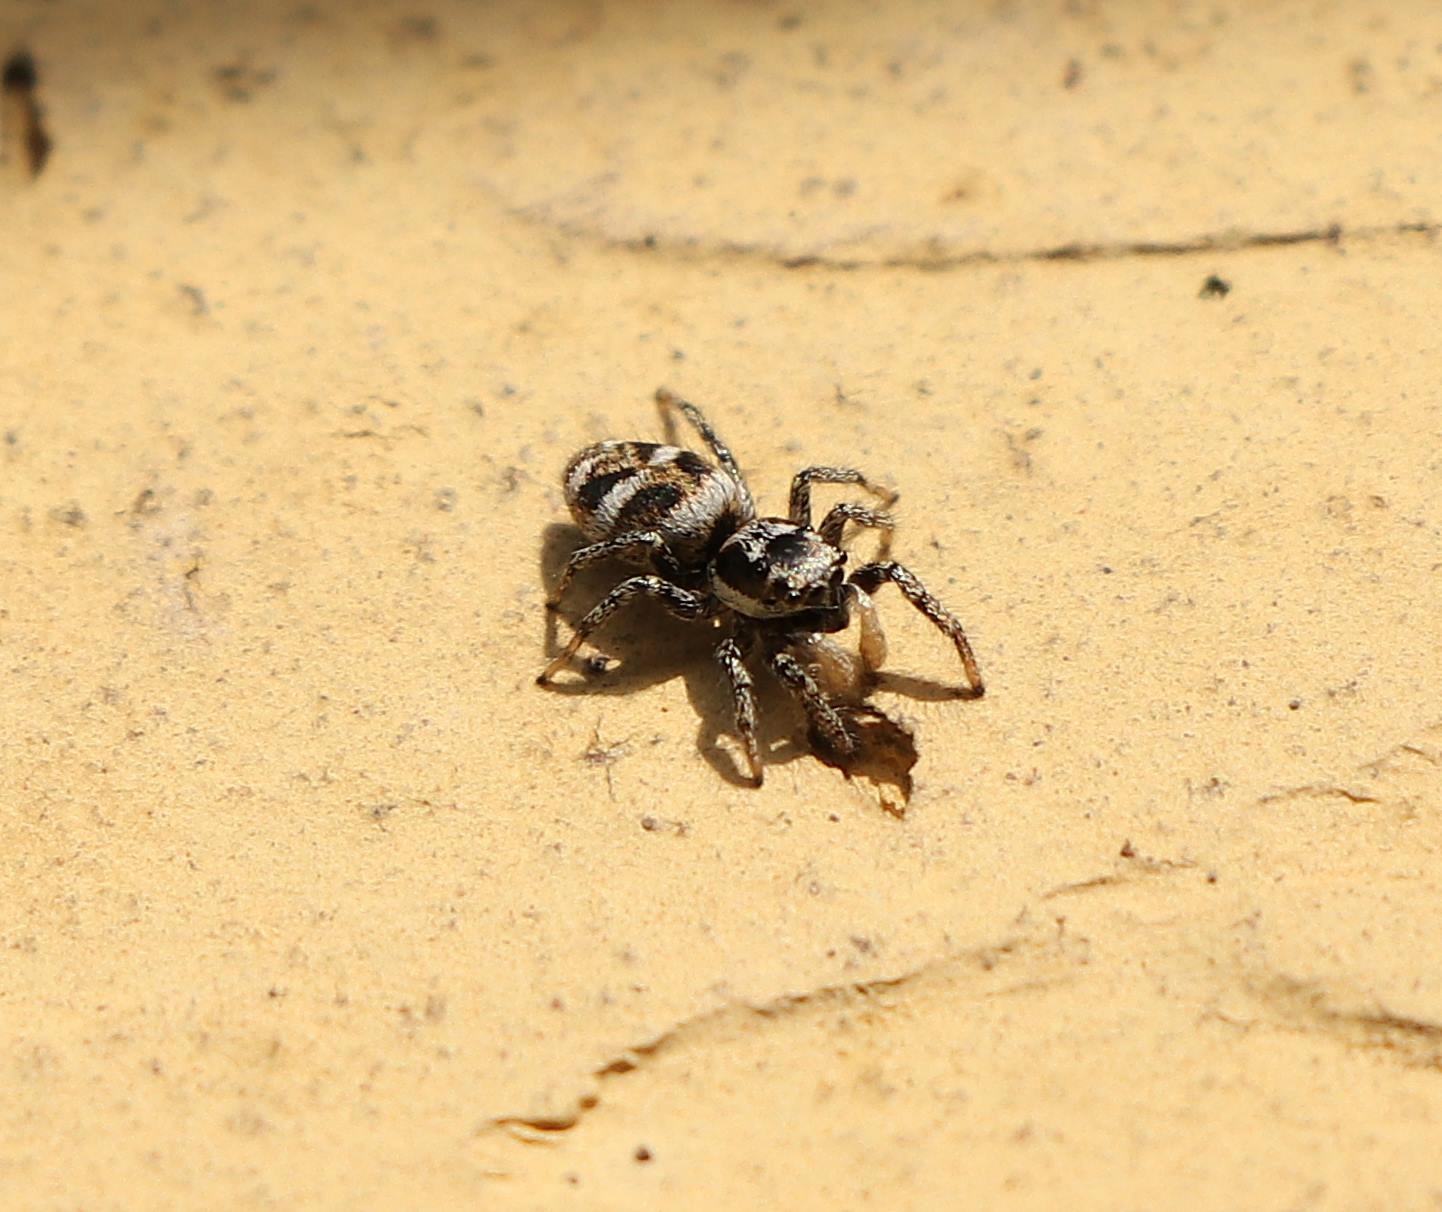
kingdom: Animalia
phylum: Arthropoda
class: Arachnida
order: Araneae
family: Salticidae
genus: Salticus
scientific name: Salticus scenicus
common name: Almindelig zebraedderkop
